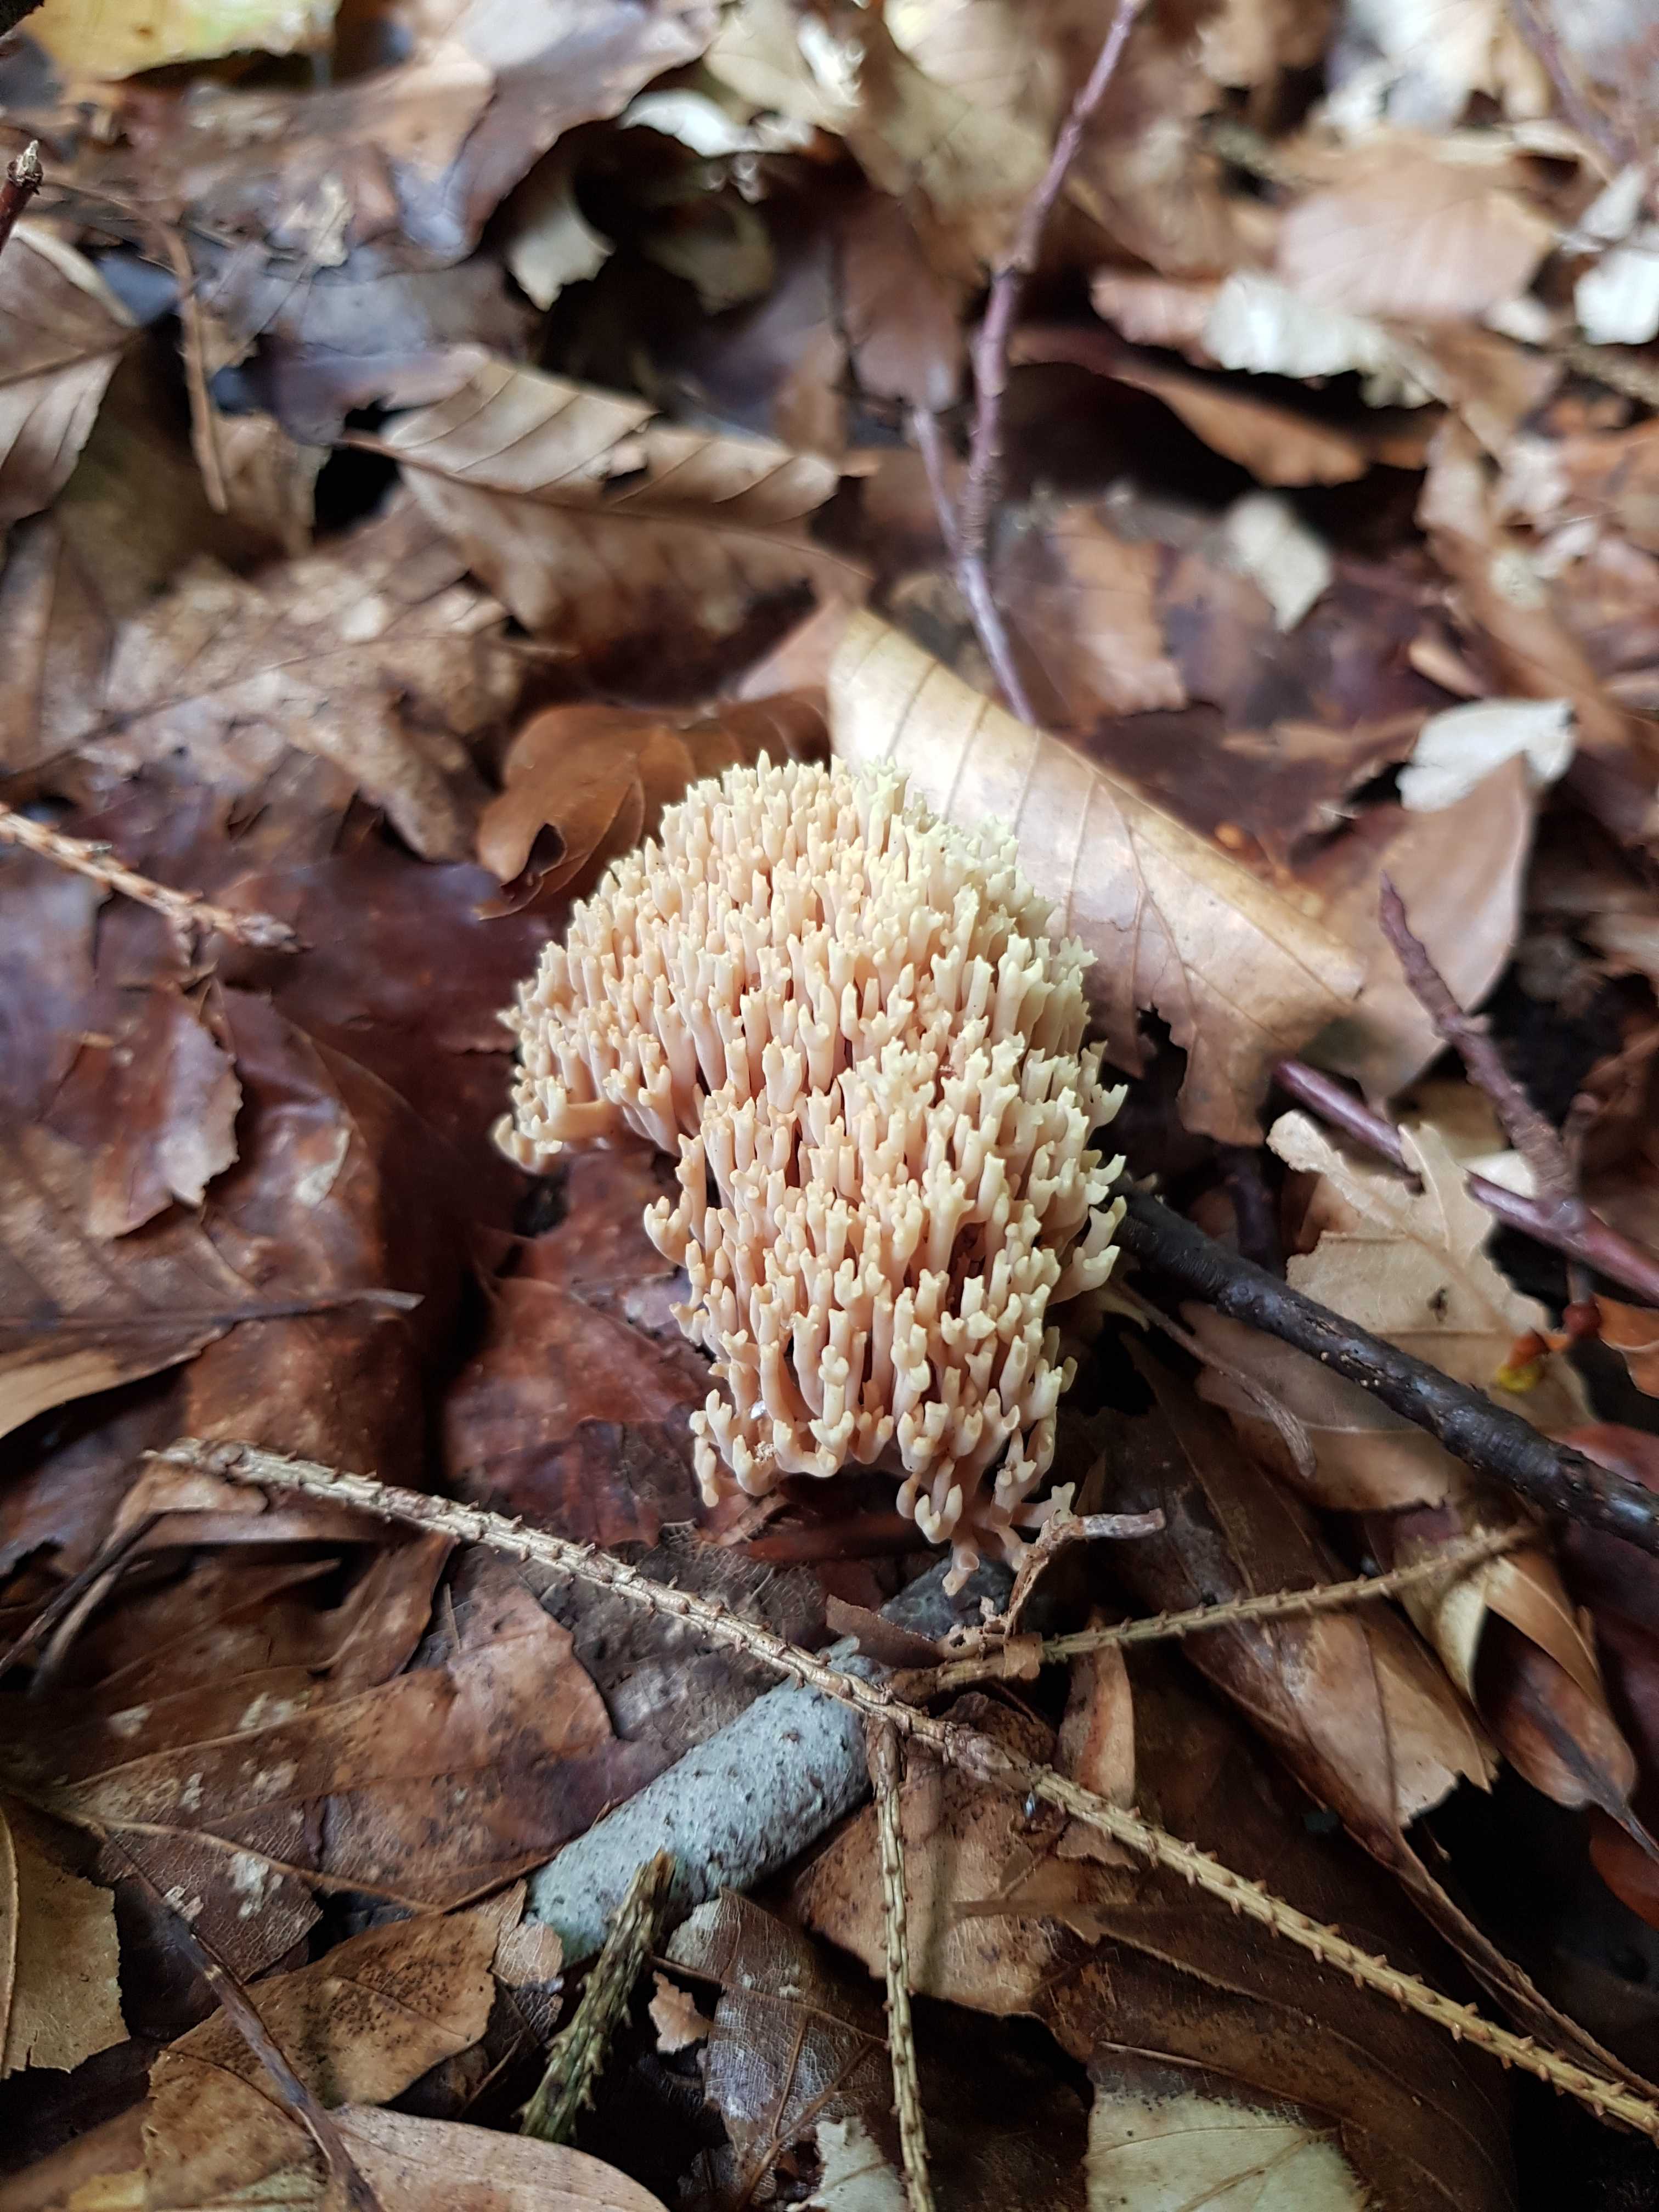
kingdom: Fungi
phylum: Basidiomycota
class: Agaricomycetes
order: Gomphales
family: Gomphaceae
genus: Ramaria
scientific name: Ramaria stricta
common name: rank koralsvamp
